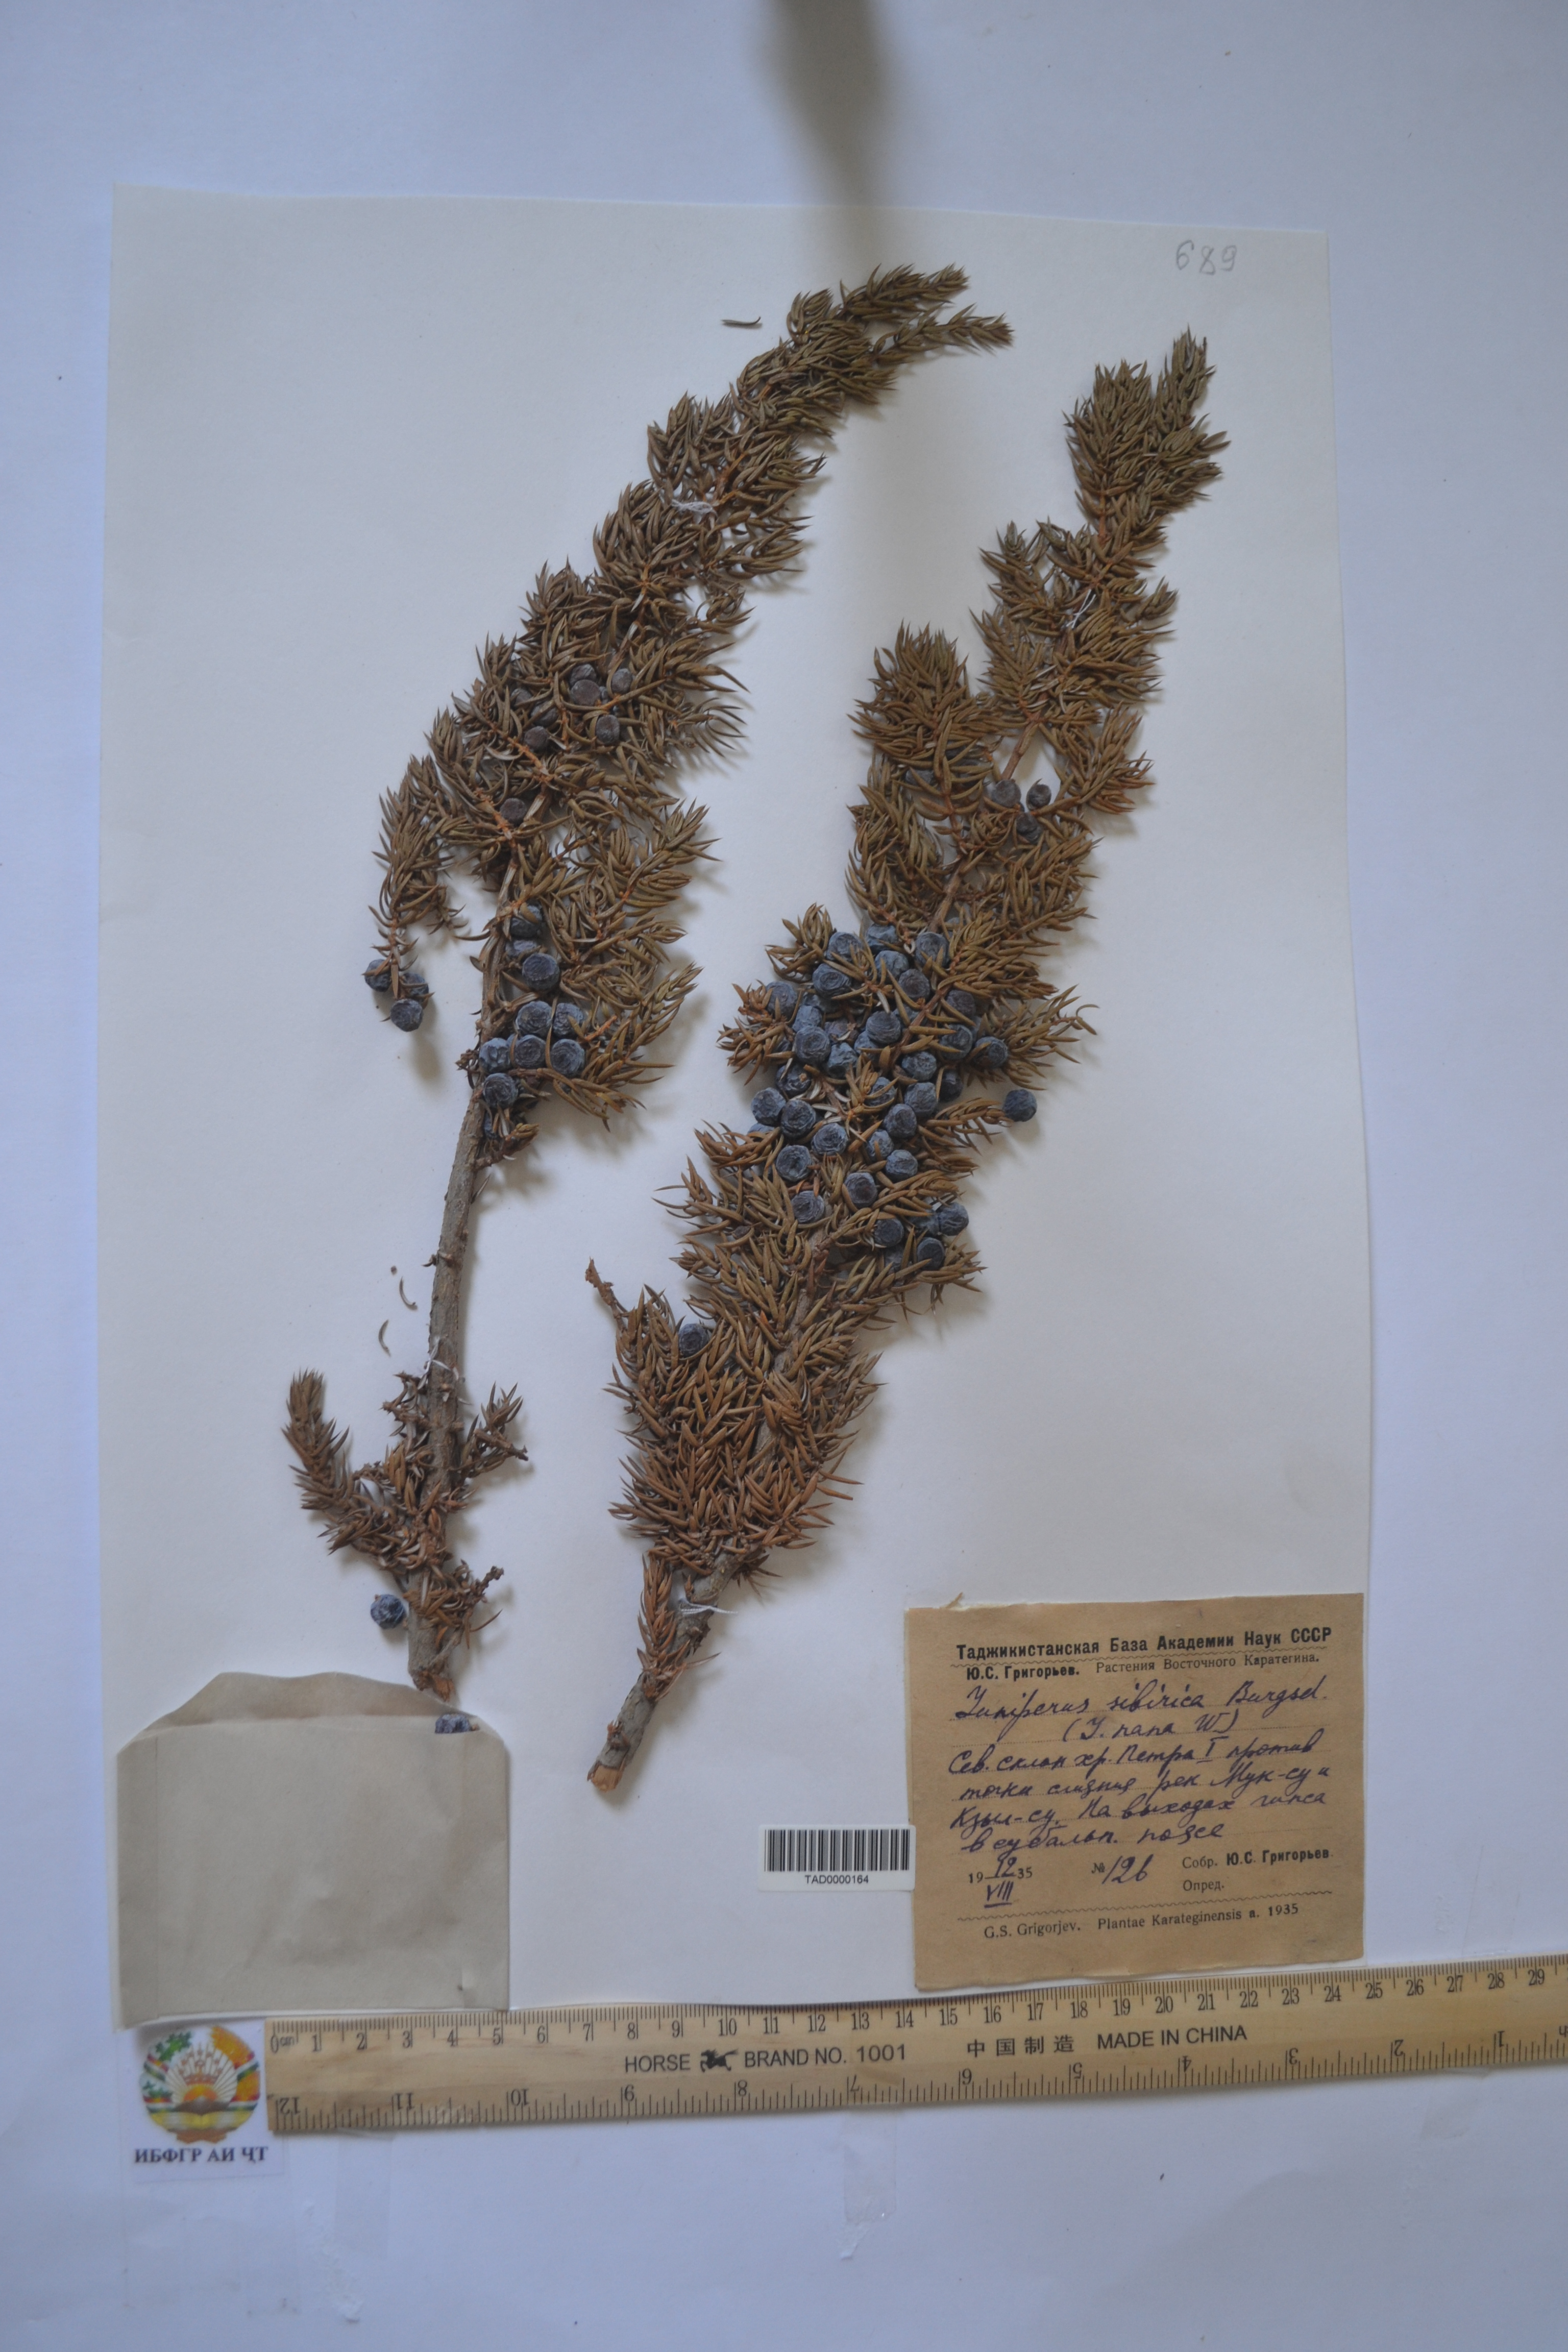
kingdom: Plantae
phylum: Tracheophyta
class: Pinopsida
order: Pinales
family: Cupressaceae
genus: Juniperus
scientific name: Juniperus excelsa
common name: Crimean juniper
